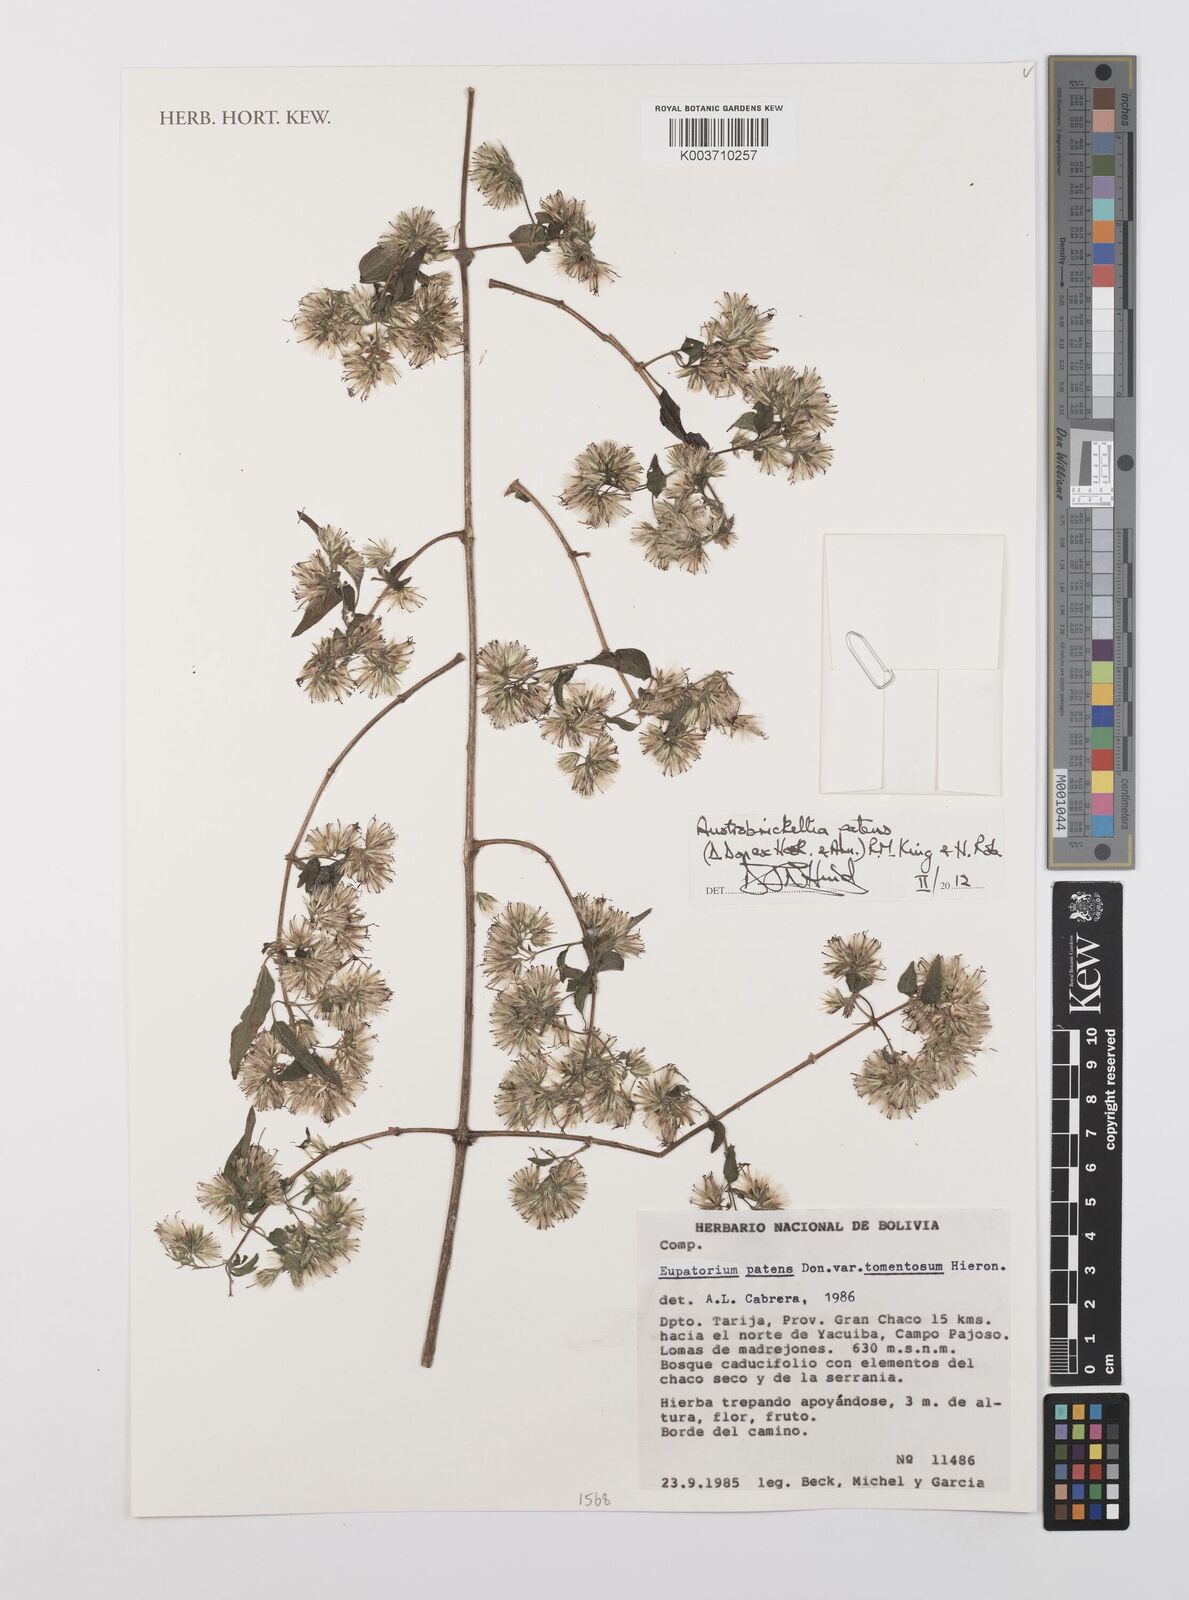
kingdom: Plantae
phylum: Tracheophyta
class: Magnoliopsida
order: Asterales
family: Asteraceae
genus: Austrobrickellia
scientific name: Austrobrickellia patens
